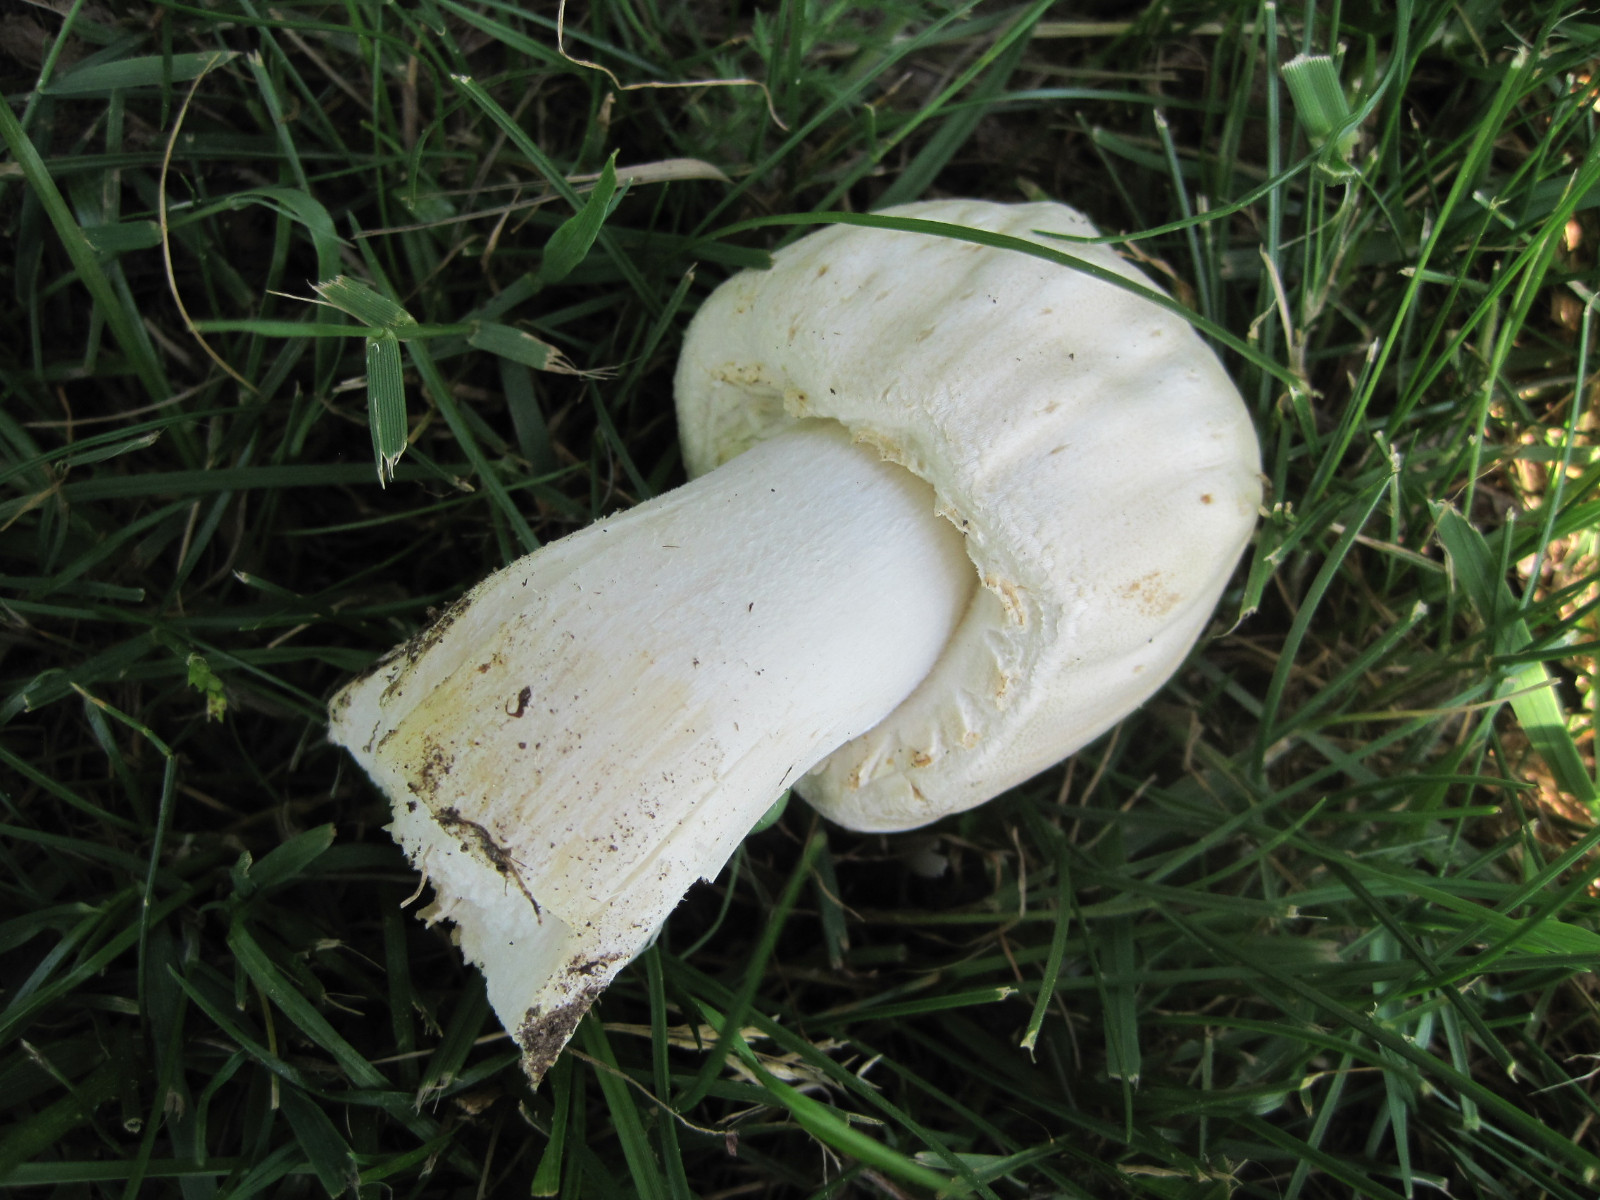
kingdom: Fungi
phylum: Basidiomycota
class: Agaricomycetes
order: Agaricales
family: Agaricaceae
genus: Agaricus
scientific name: Agaricus arvensis
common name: ager-champignon
